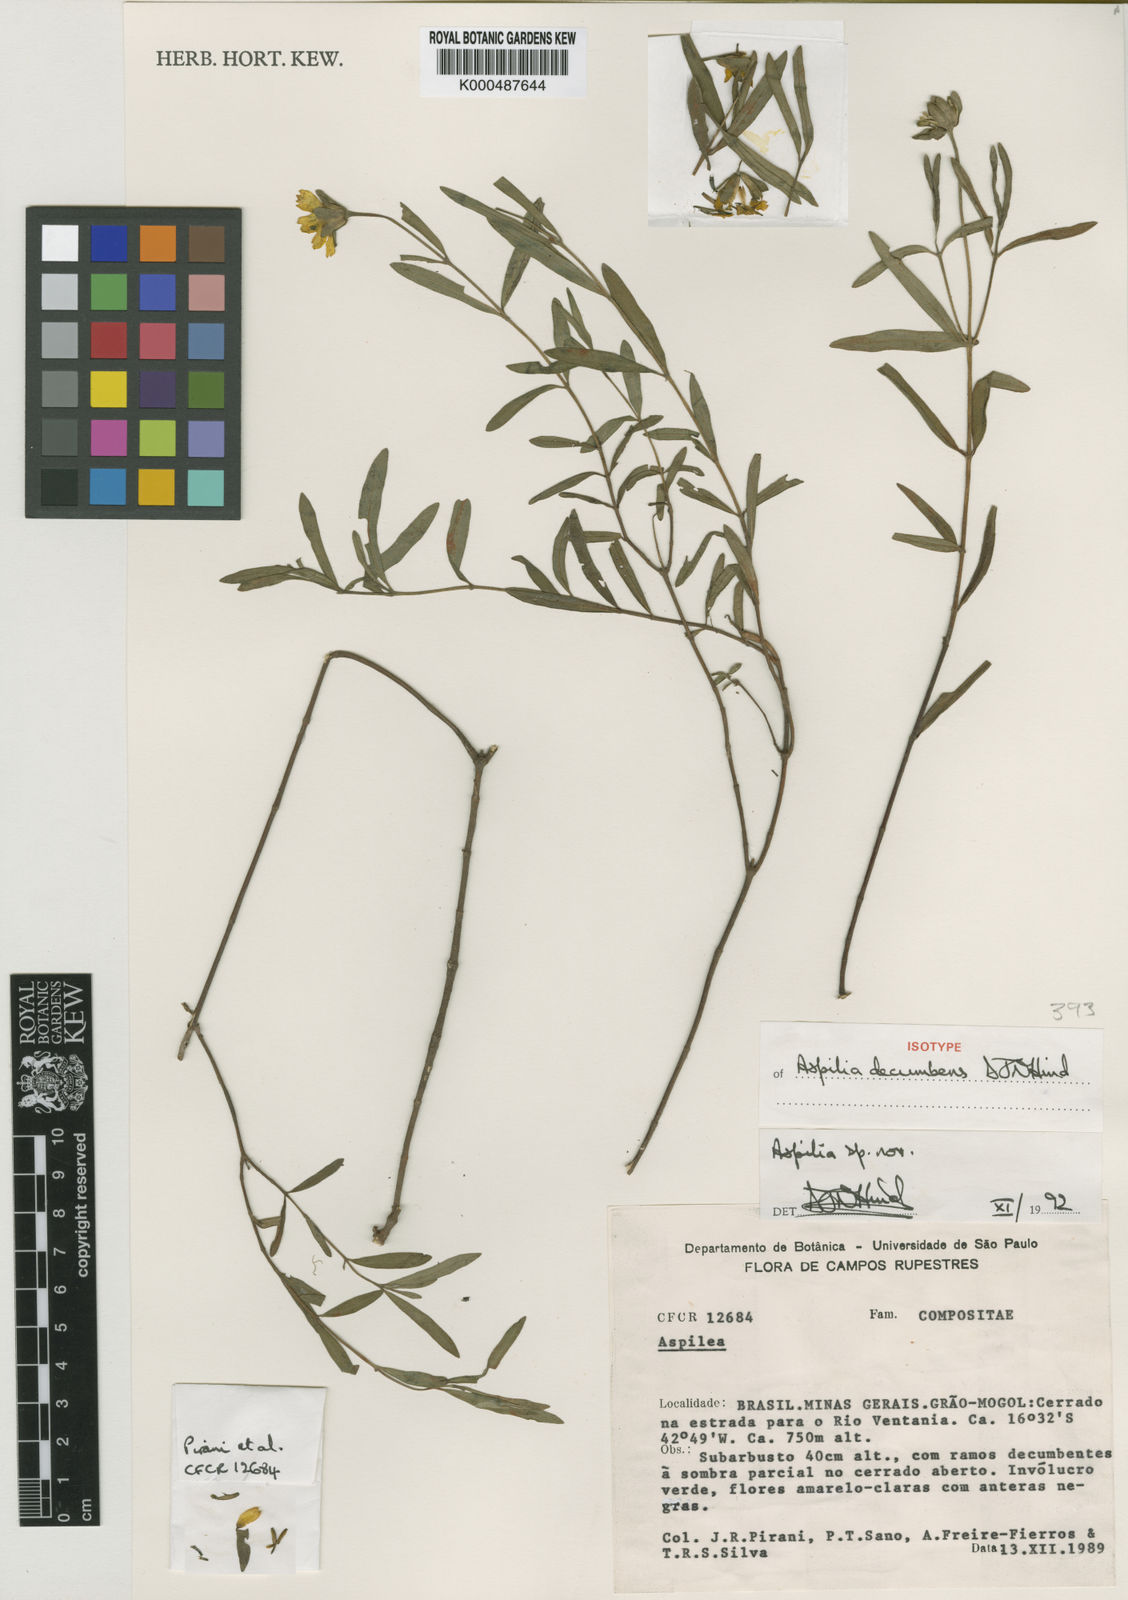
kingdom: Plantae
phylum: Tracheophyta
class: Magnoliopsida
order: Asterales
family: Asteraceae
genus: Wedelia
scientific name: Wedelia subalpestris
